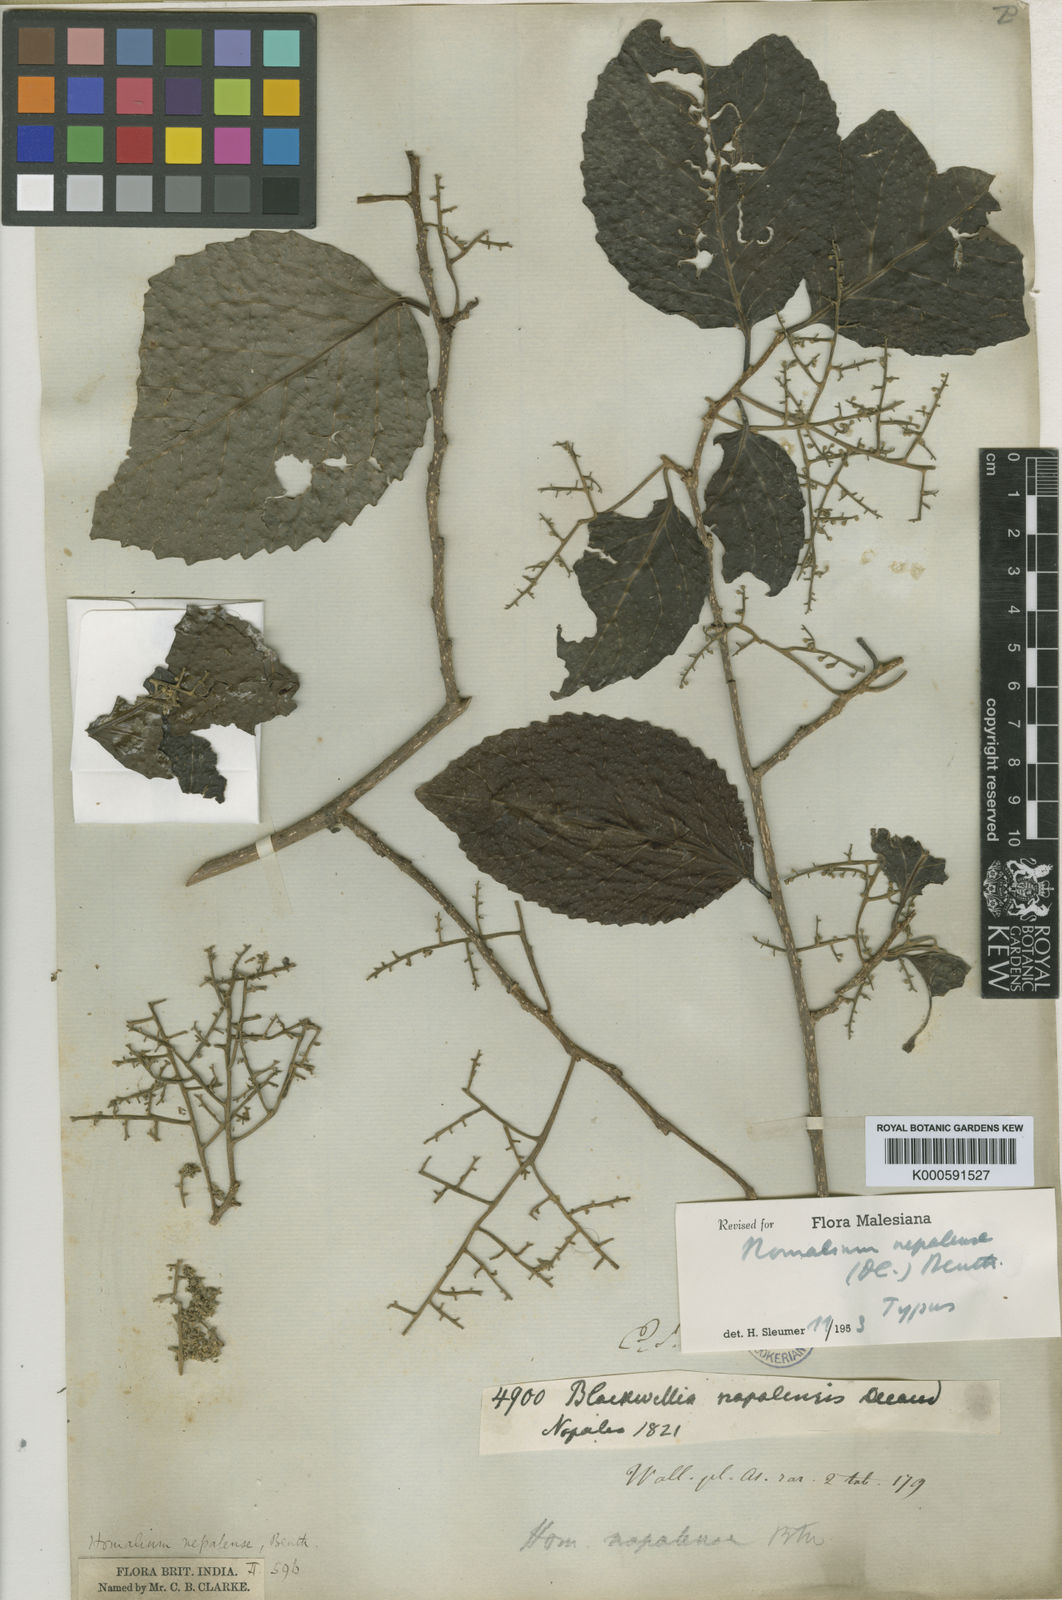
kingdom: Plantae
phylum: Tracheophyta
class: Magnoliopsida
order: Malpighiales
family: Salicaceae
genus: Homalium
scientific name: Homalium
